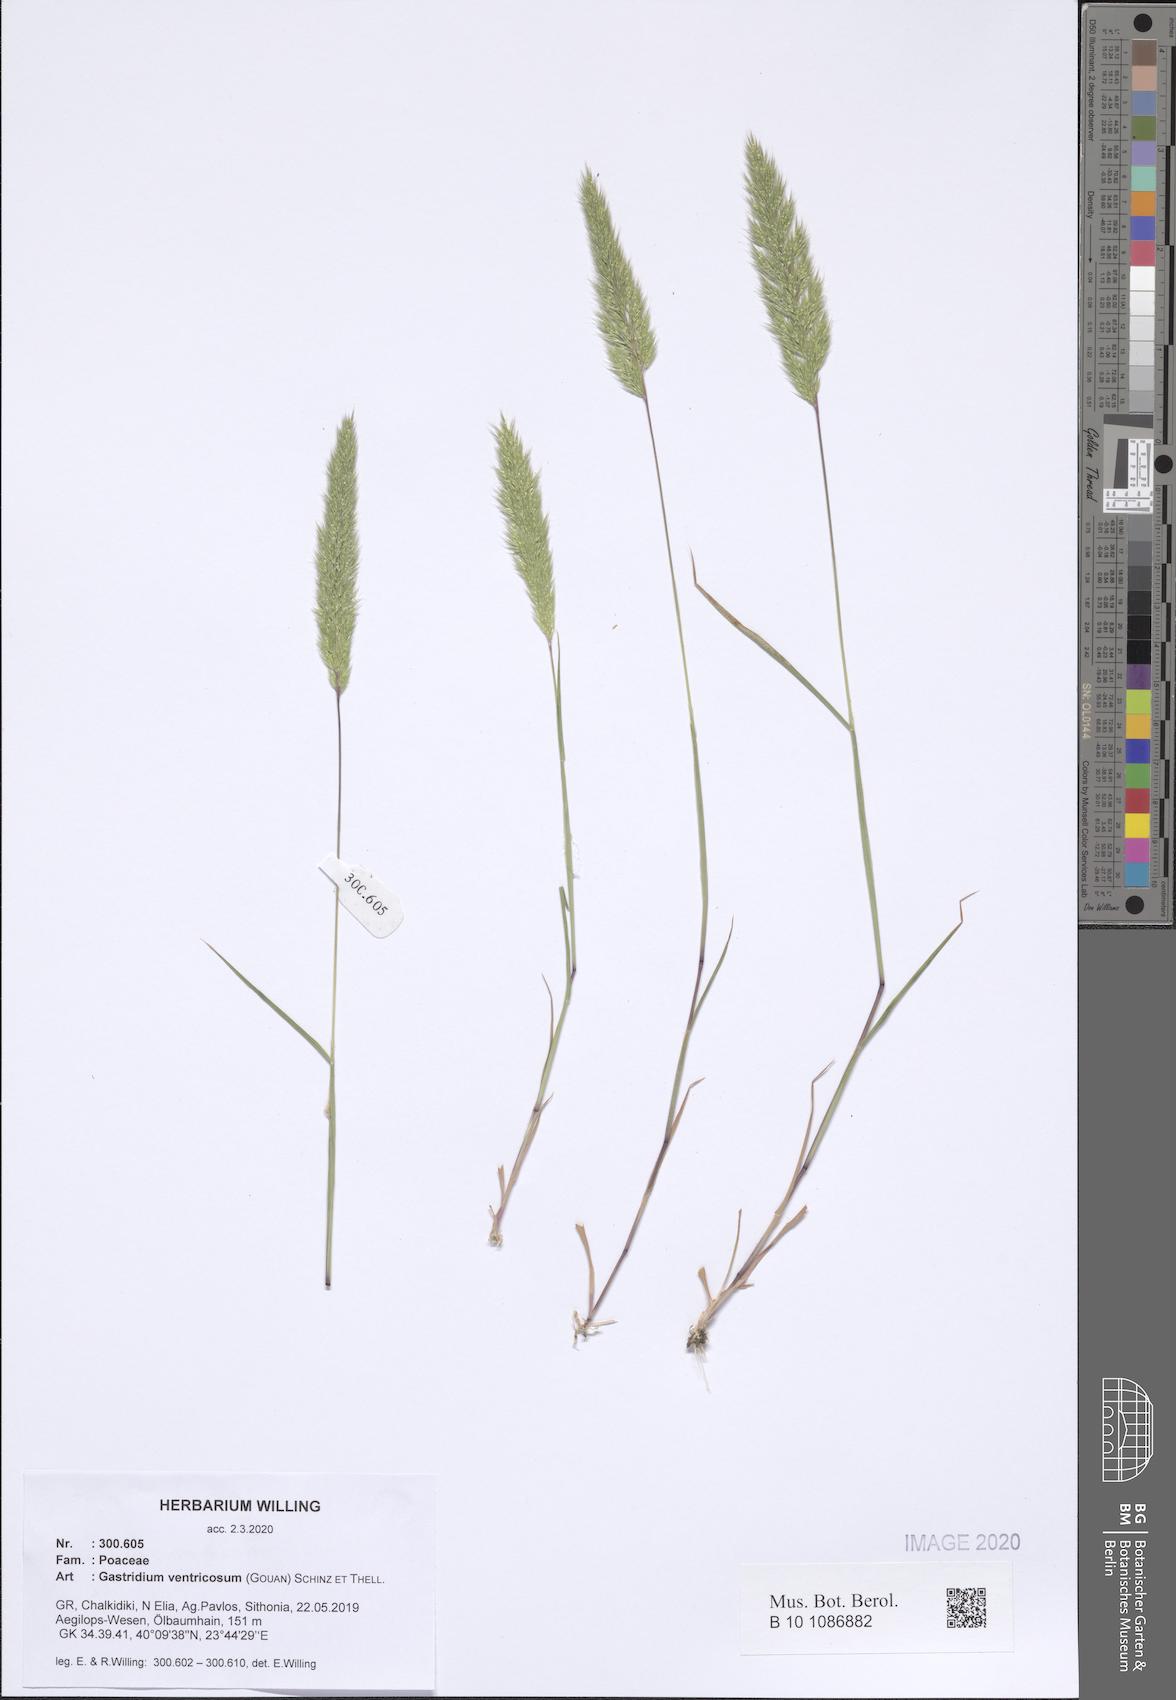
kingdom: Plantae
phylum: Tracheophyta
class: Liliopsida
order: Poales
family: Poaceae
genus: Gastridium
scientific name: Gastridium ventricosum
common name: Nit-grass
